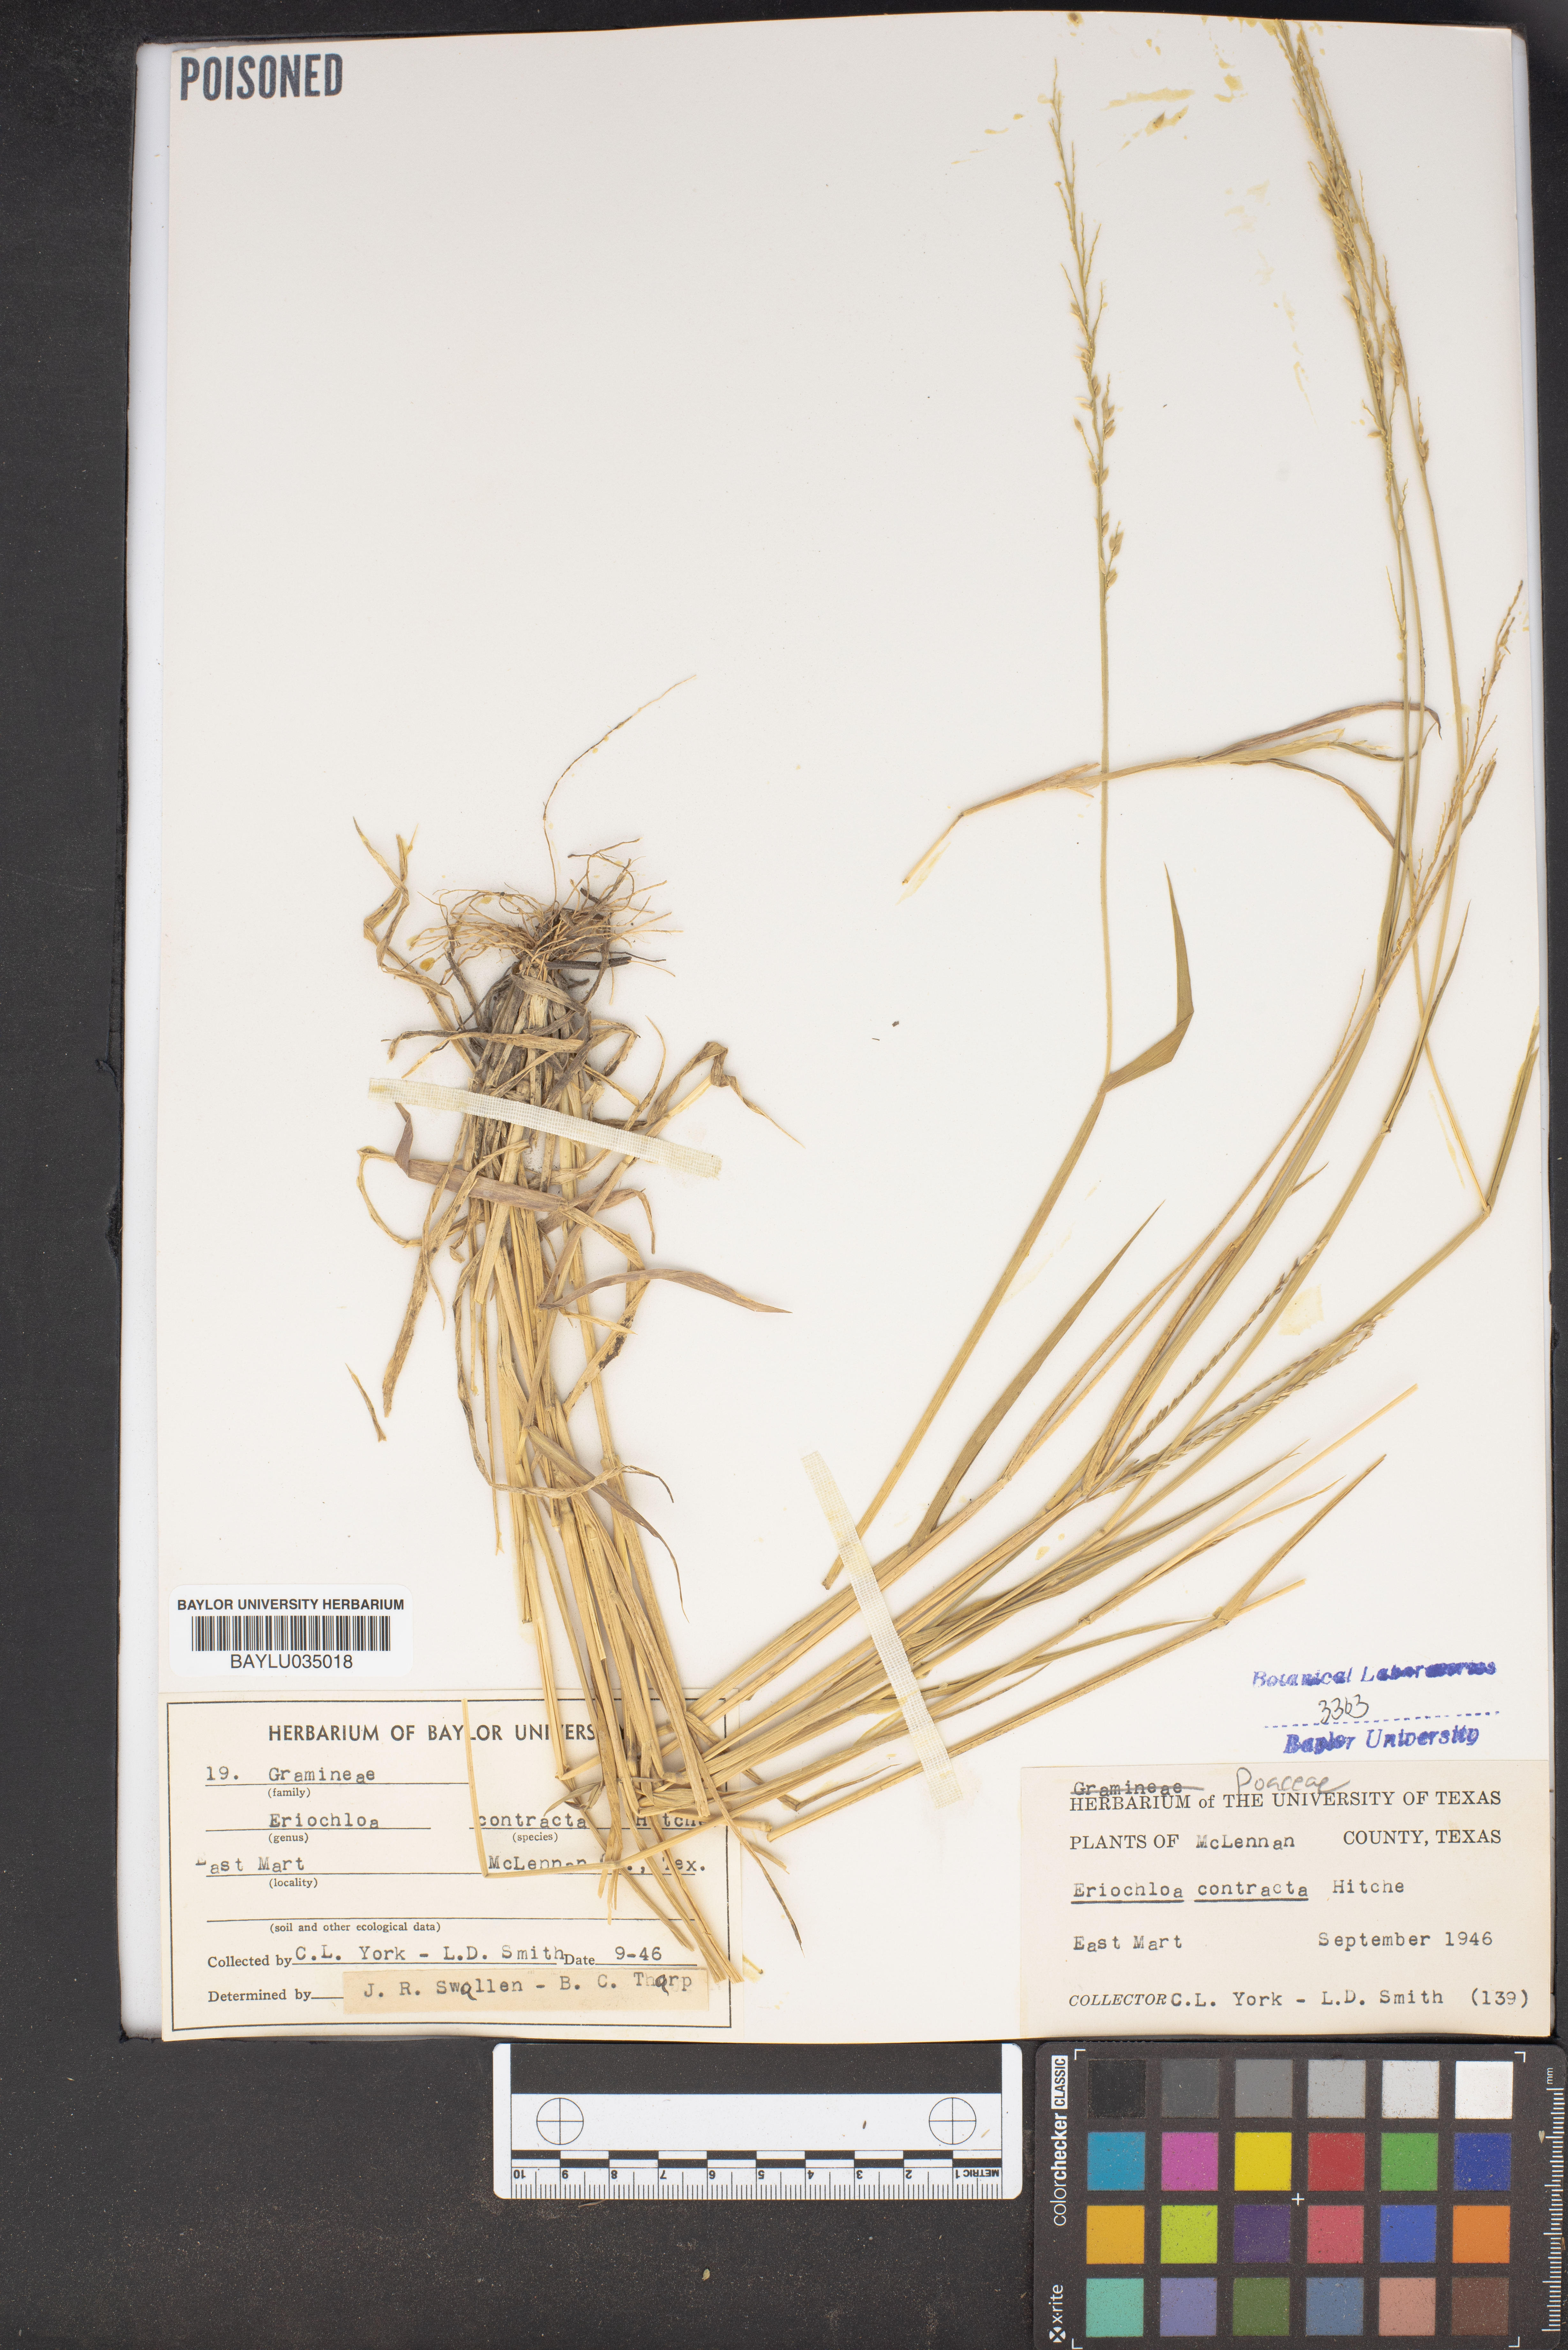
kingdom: Plantae
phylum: Tracheophyta
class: Liliopsida
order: Poales
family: Poaceae
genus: Eriochloa
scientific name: Eriochloa contracta
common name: Prairie cup grass
